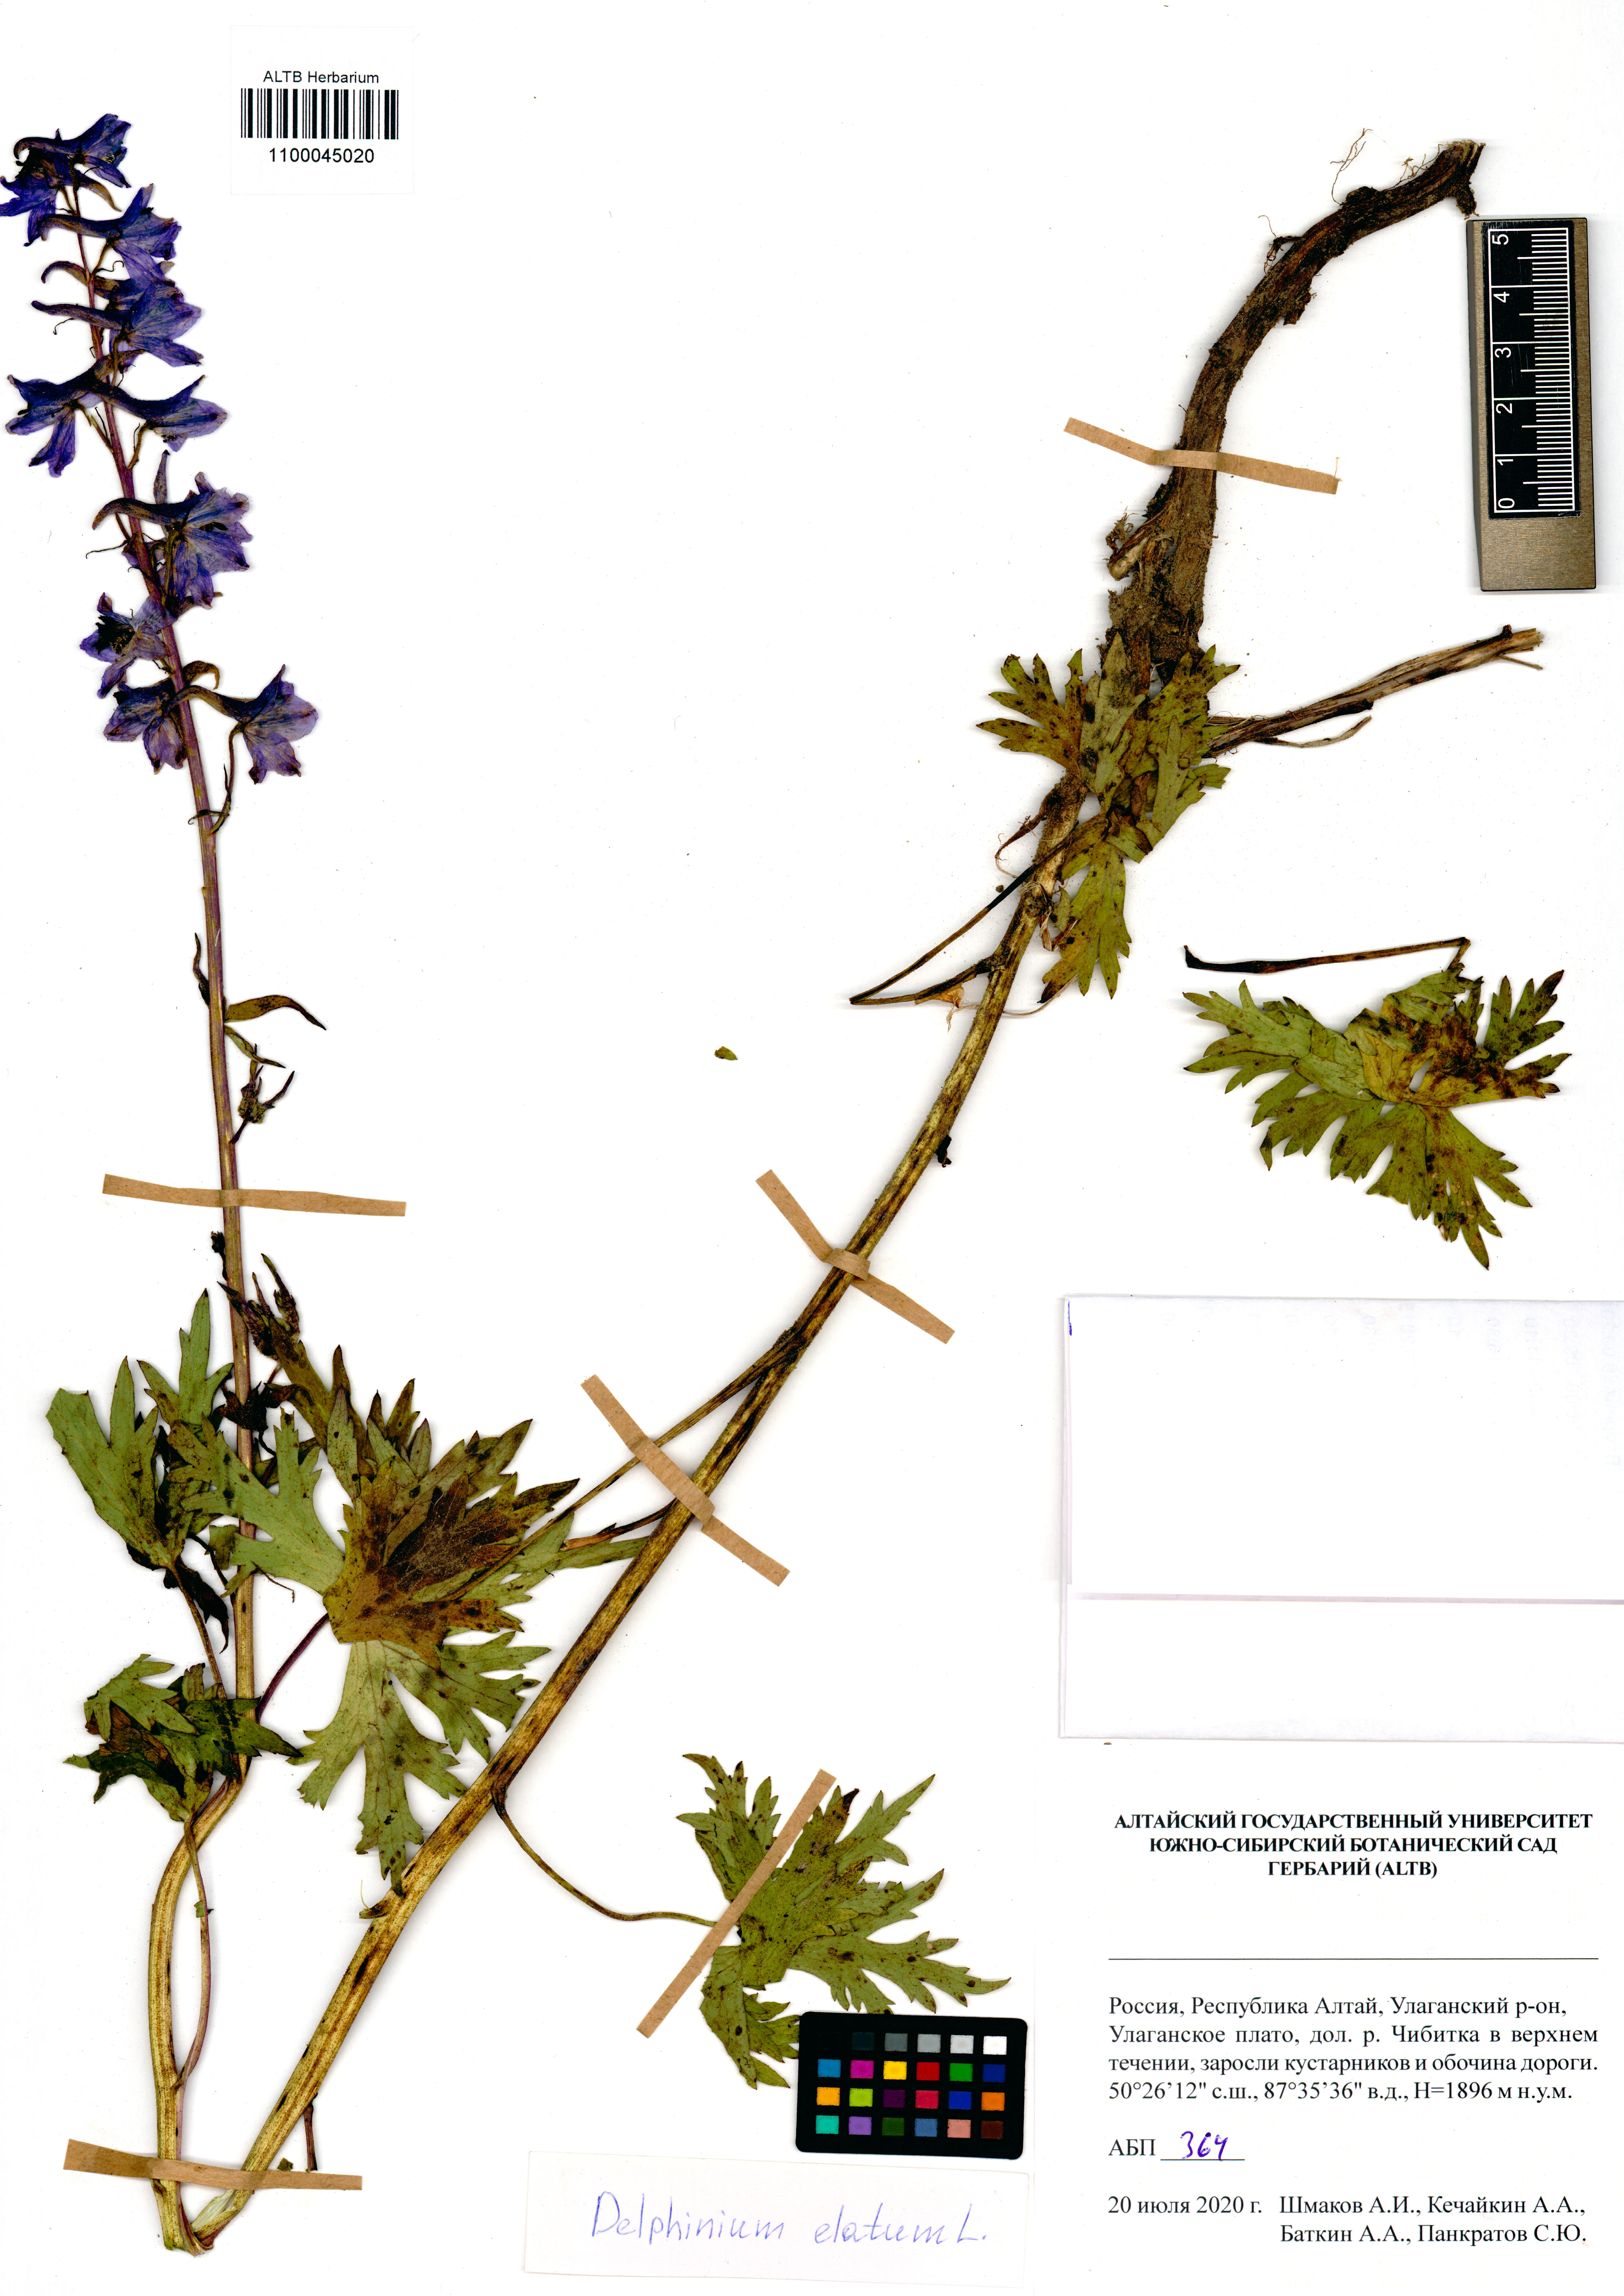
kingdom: Plantae
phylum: Tracheophyta
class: Magnoliopsida
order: Ranunculales
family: Ranunculaceae
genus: Delphinium
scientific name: Delphinium elatum
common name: Candle larkspur
